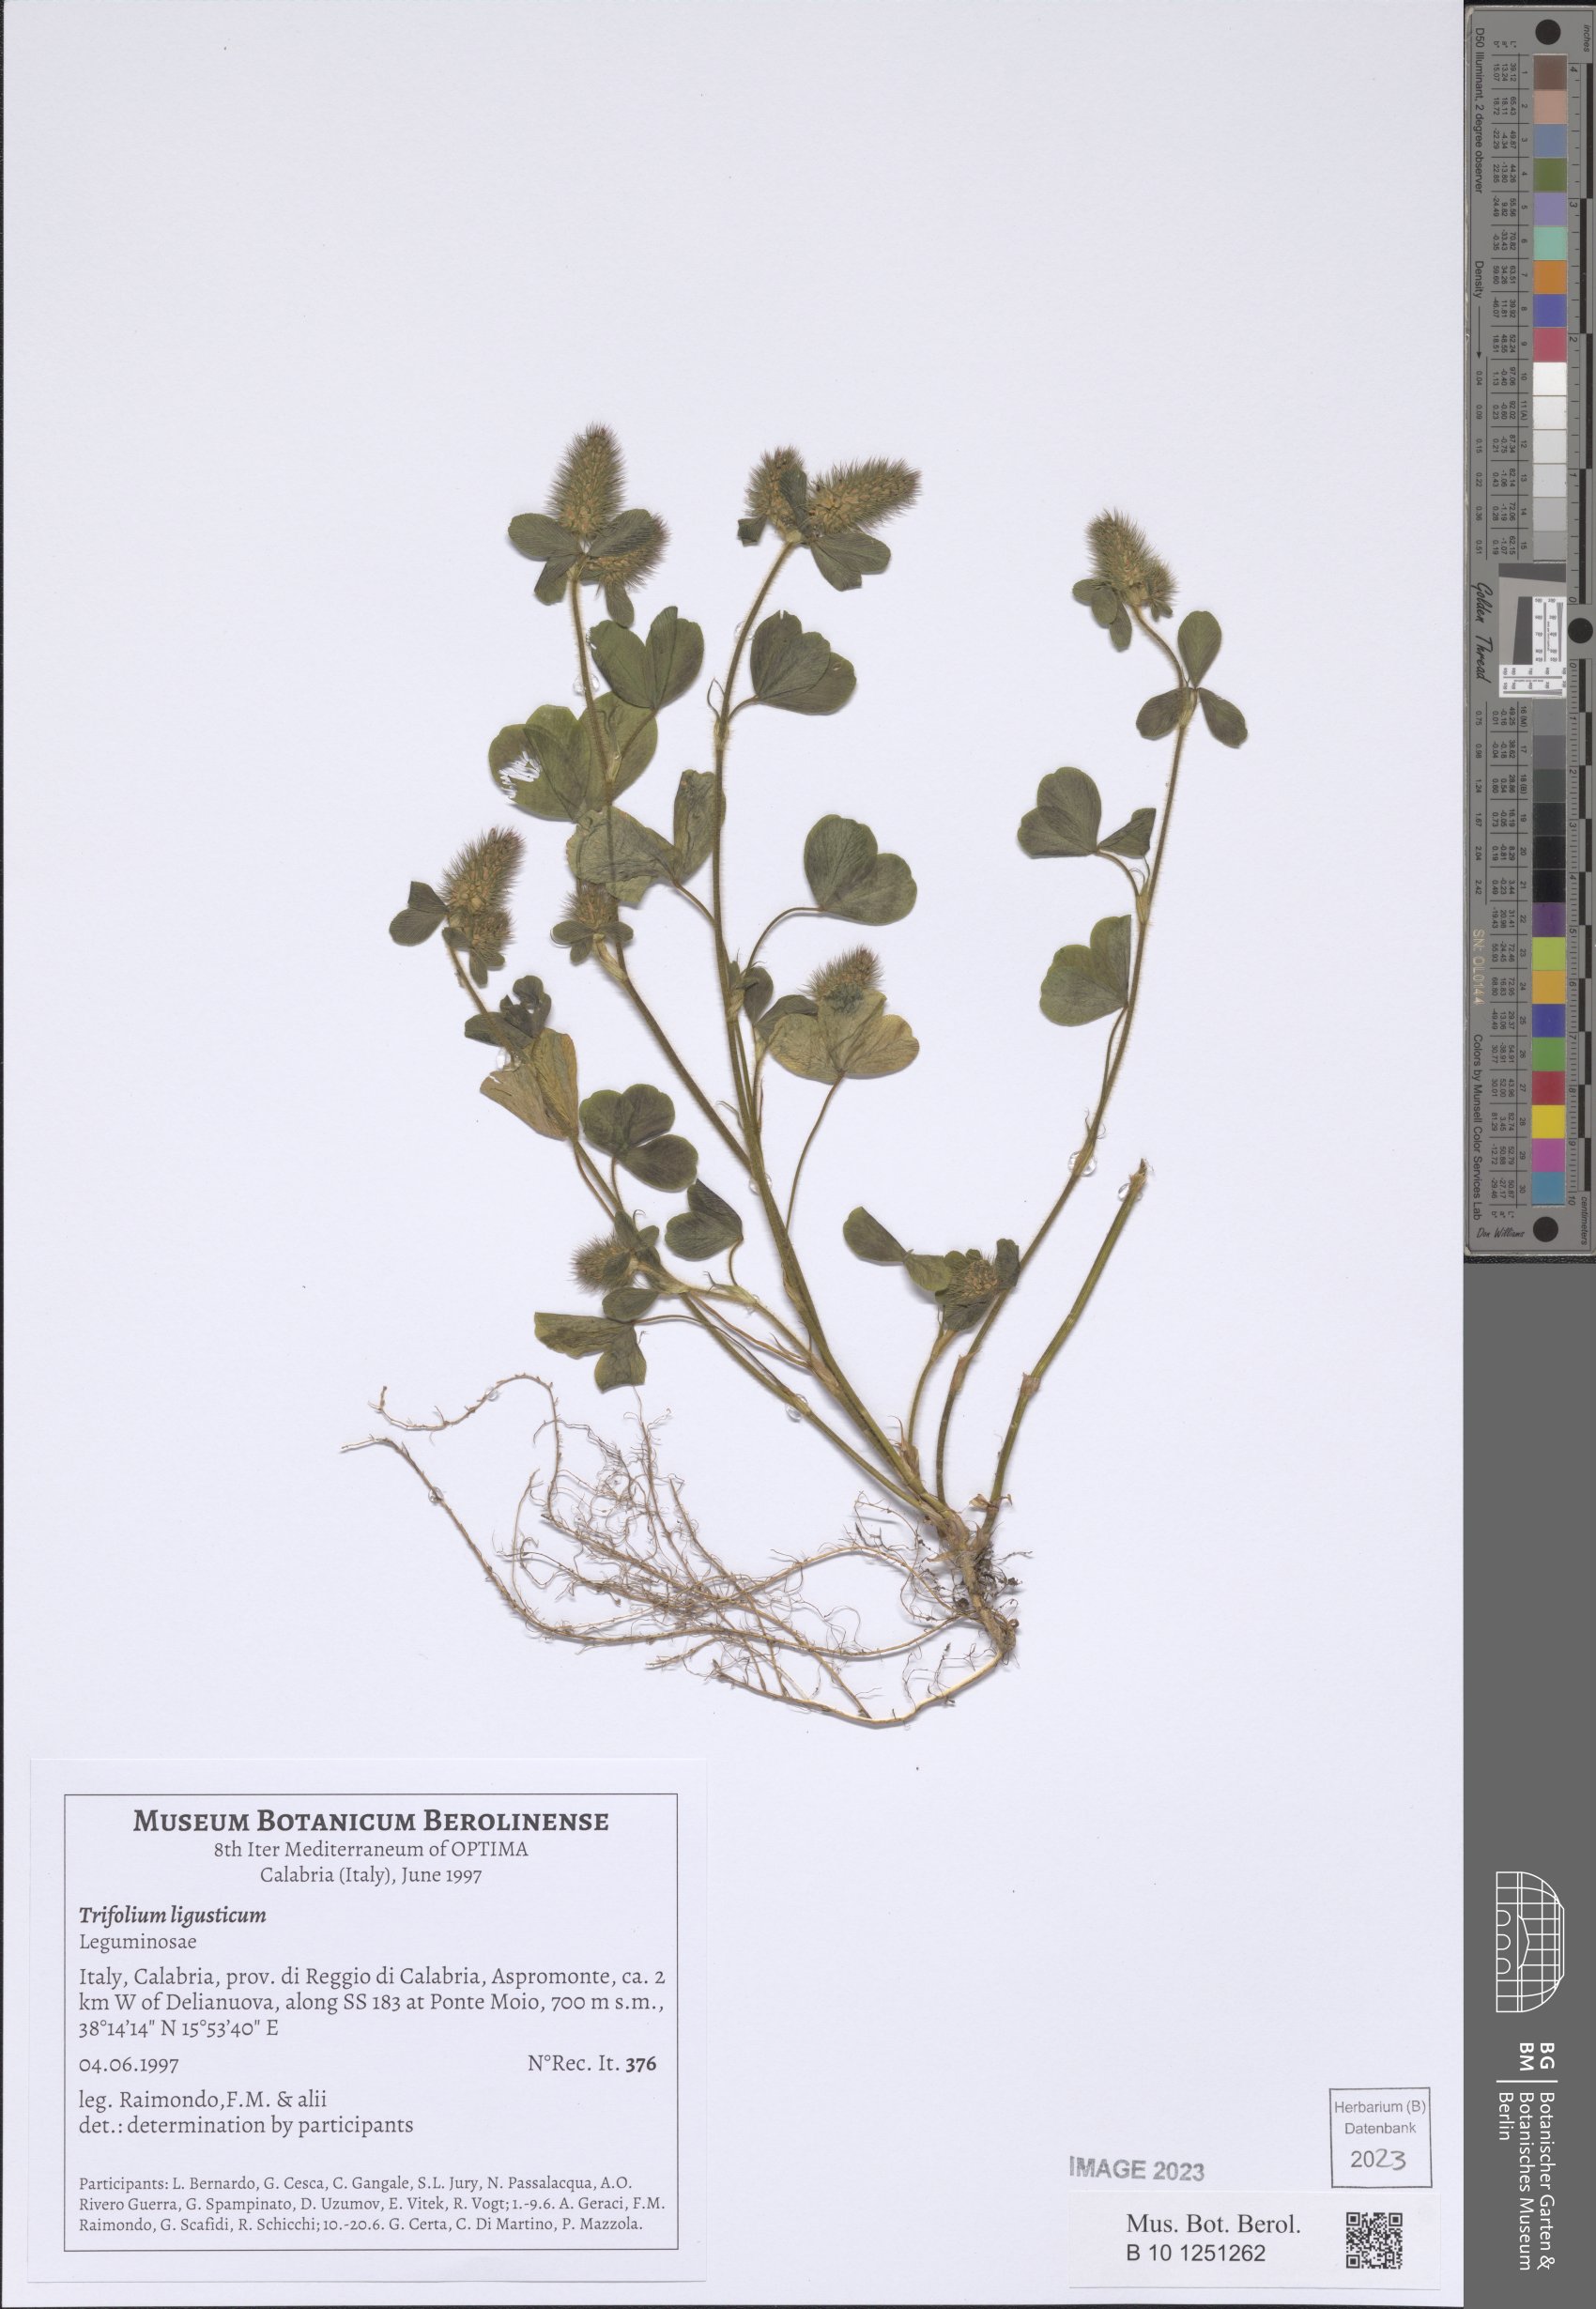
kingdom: Plantae
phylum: Tracheophyta
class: Magnoliopsida
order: Fabales
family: Fabaceae
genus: Trifolium
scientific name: Trifolium ligusticum
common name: Ligurian clover
